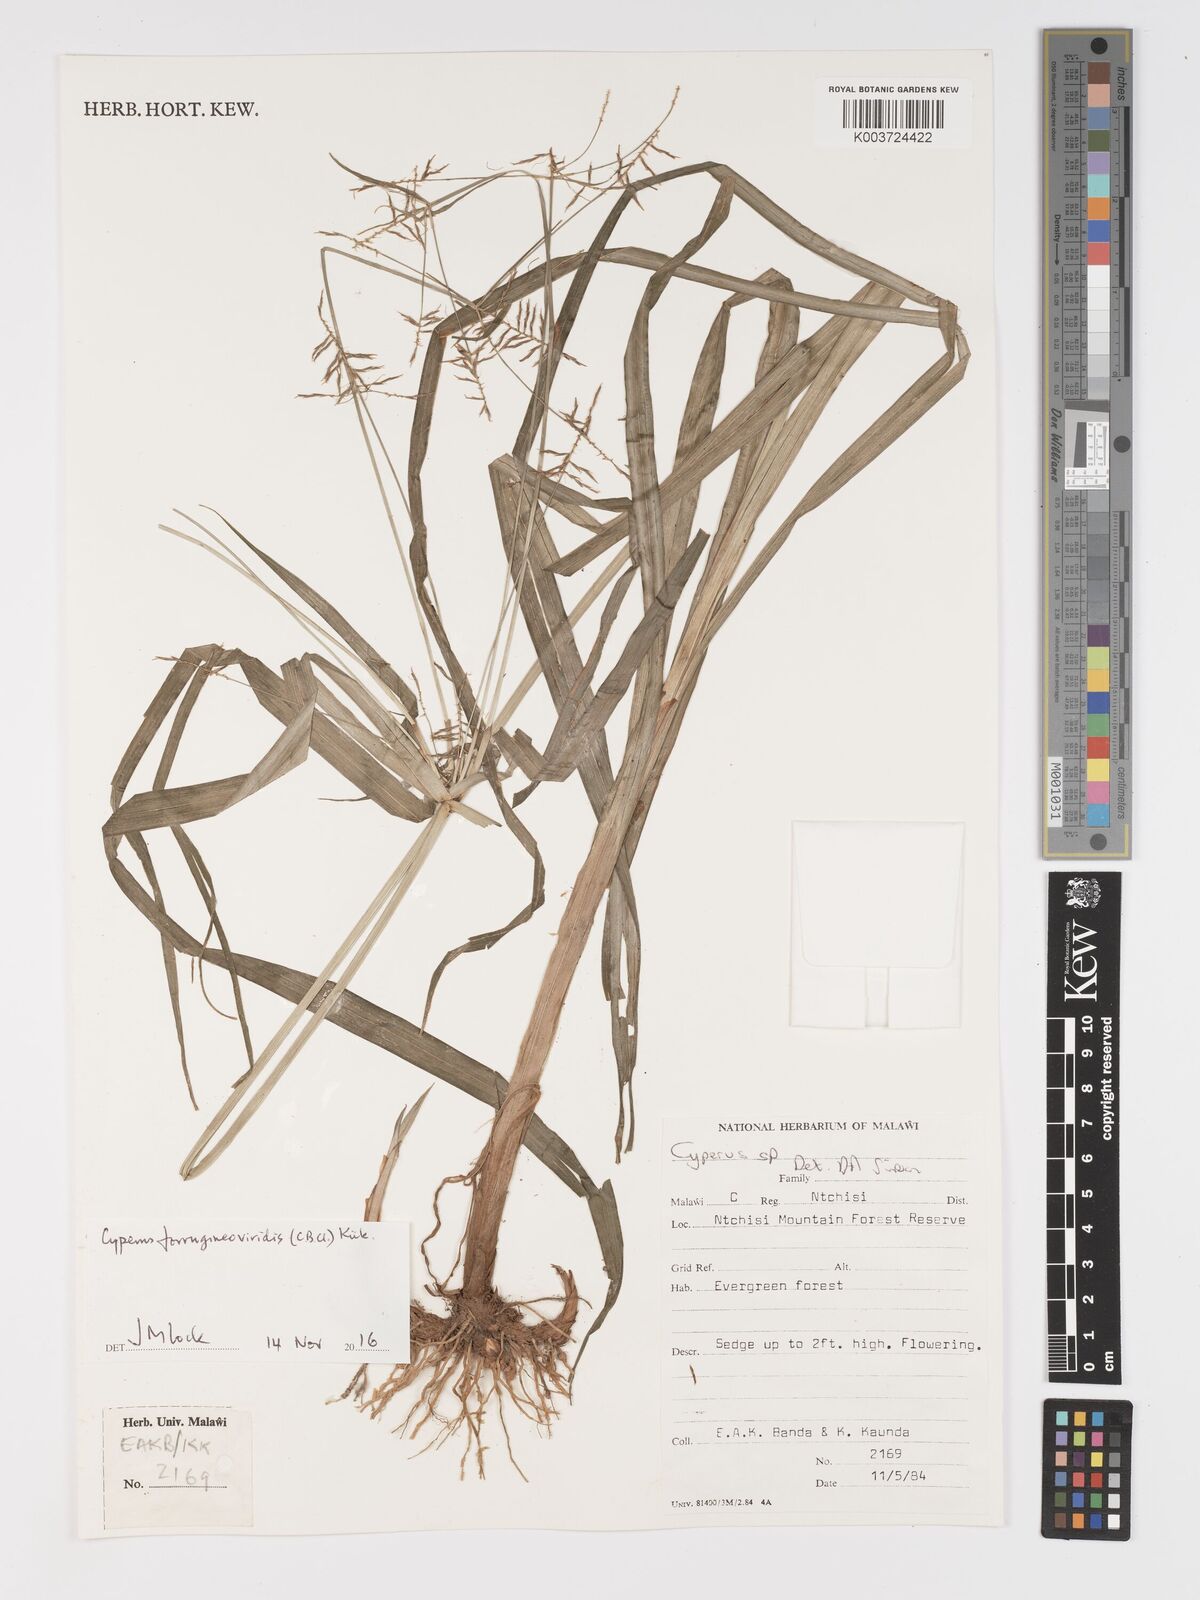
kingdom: Plantae
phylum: Tracheophyta
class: Liliopsida
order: Poales
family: Cyperaceae
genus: Cyperus
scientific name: Cyperus ferrugineoviridis
